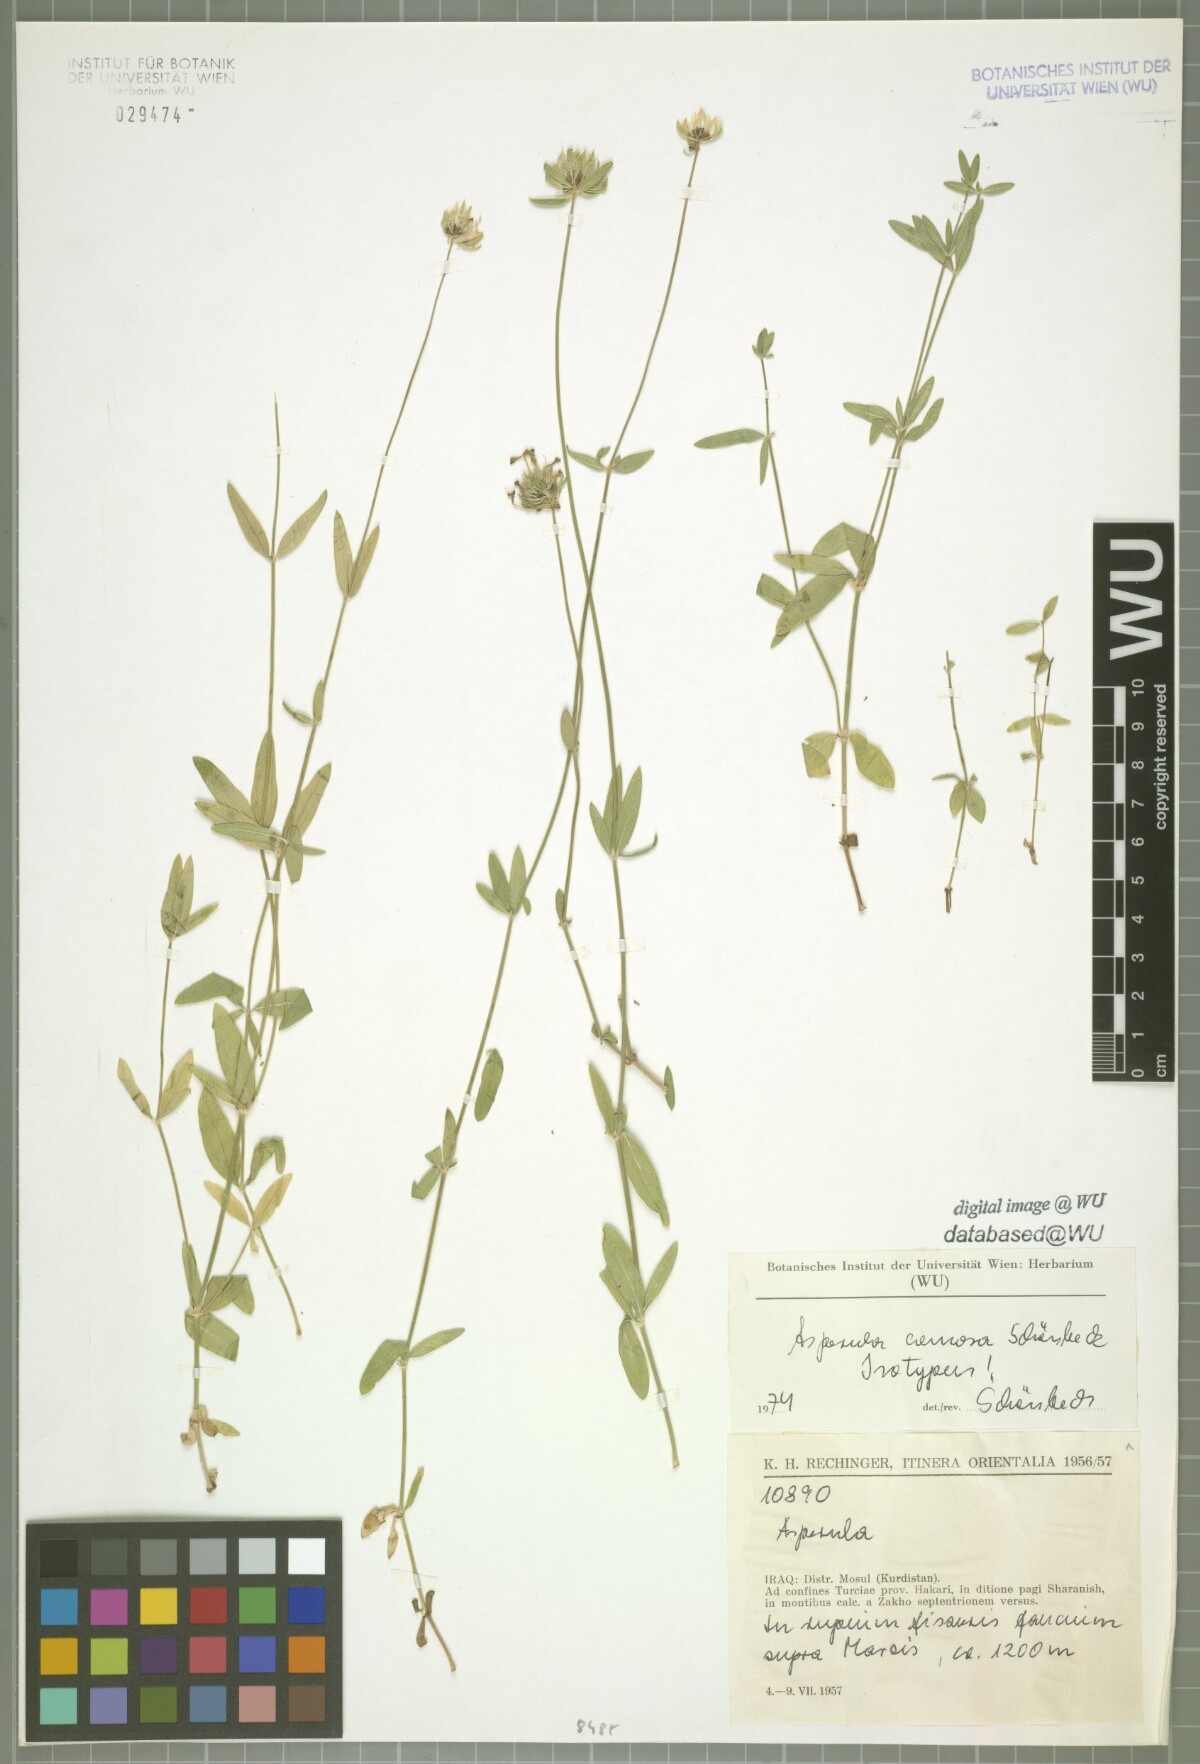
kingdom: Plantae
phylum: Tracheophyta
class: Magnoliopsida
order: Gentianales
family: Rubiaceae
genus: Asperula
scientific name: Asperula comosa
